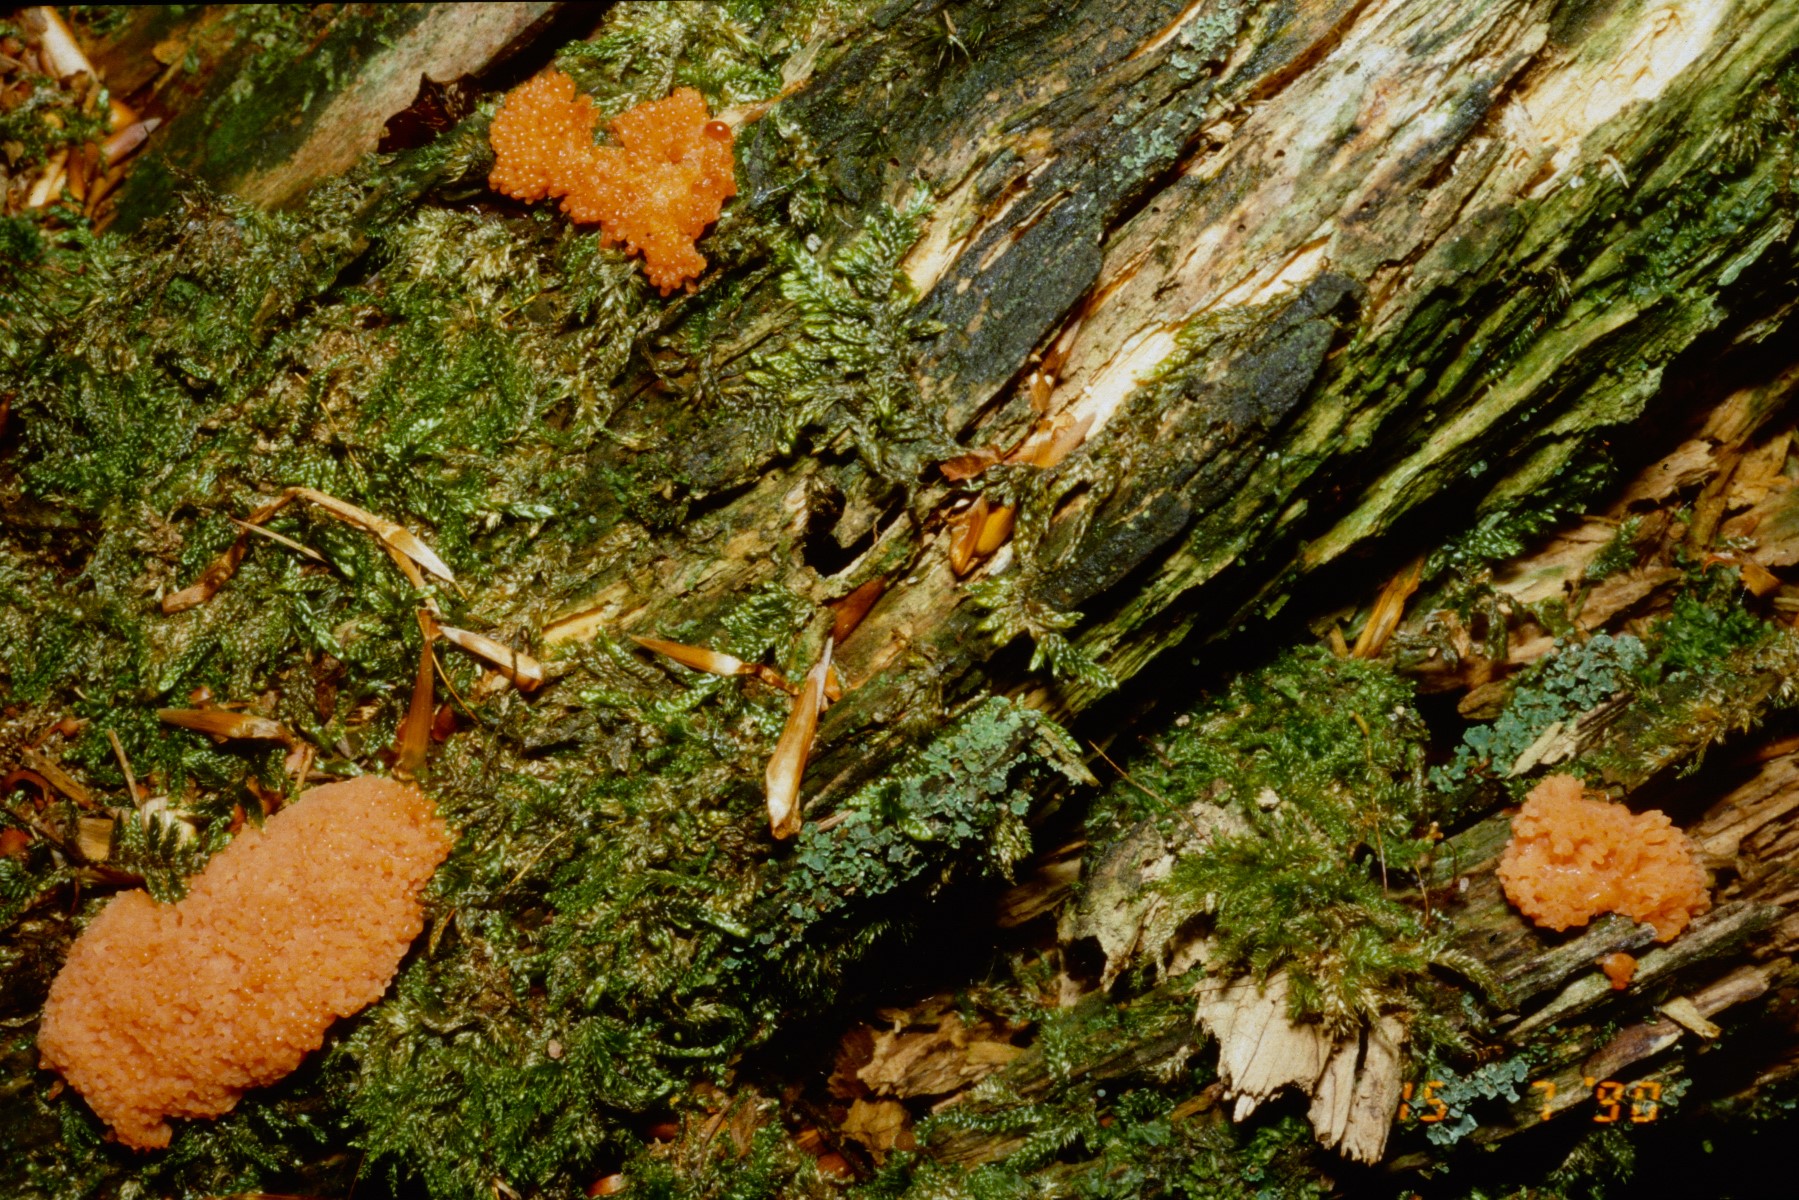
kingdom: Protozoa
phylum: Mycetozoa
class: Myxomycetes
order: Cribrariales
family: Tubiferaceae
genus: Tubifera
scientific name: Tubifera ferruginosa
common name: kanel-støvrør
